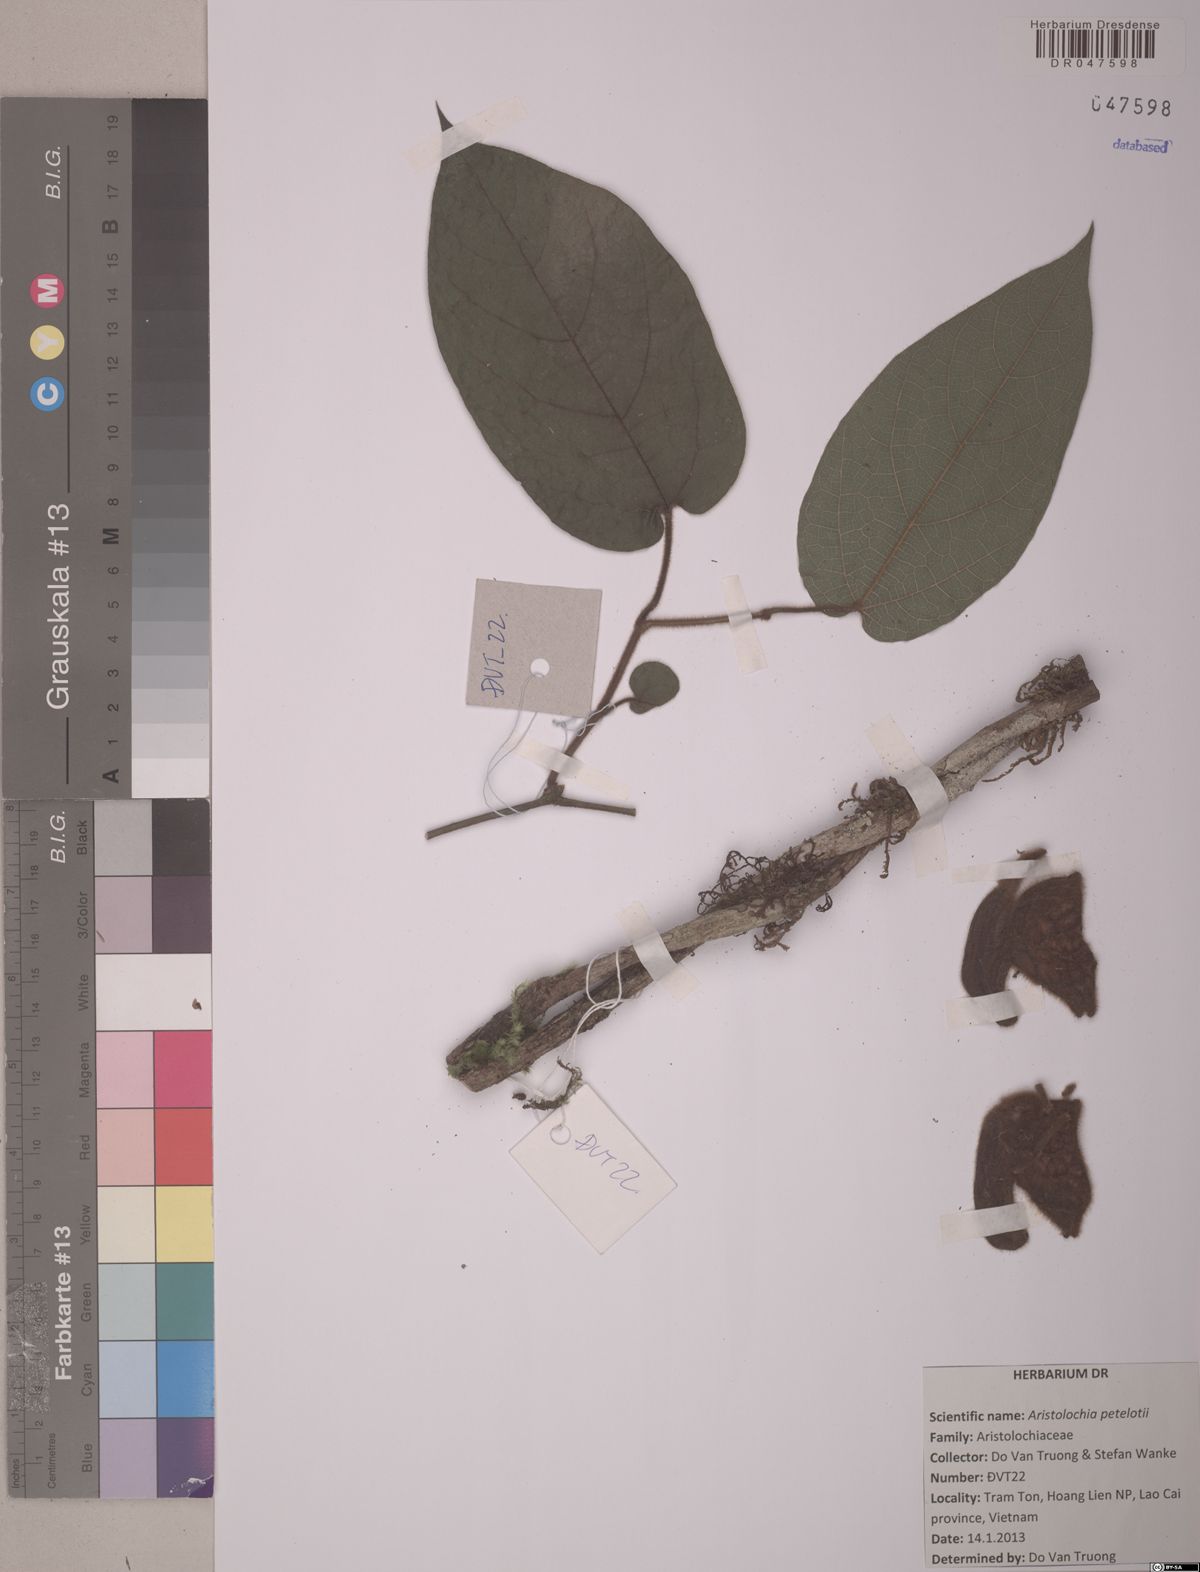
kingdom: Plantae
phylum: Tracheophyta
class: Magnoliopsida
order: Piperales
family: Aristolochiaceae
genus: Isotrema
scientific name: Isotrema petelotii
